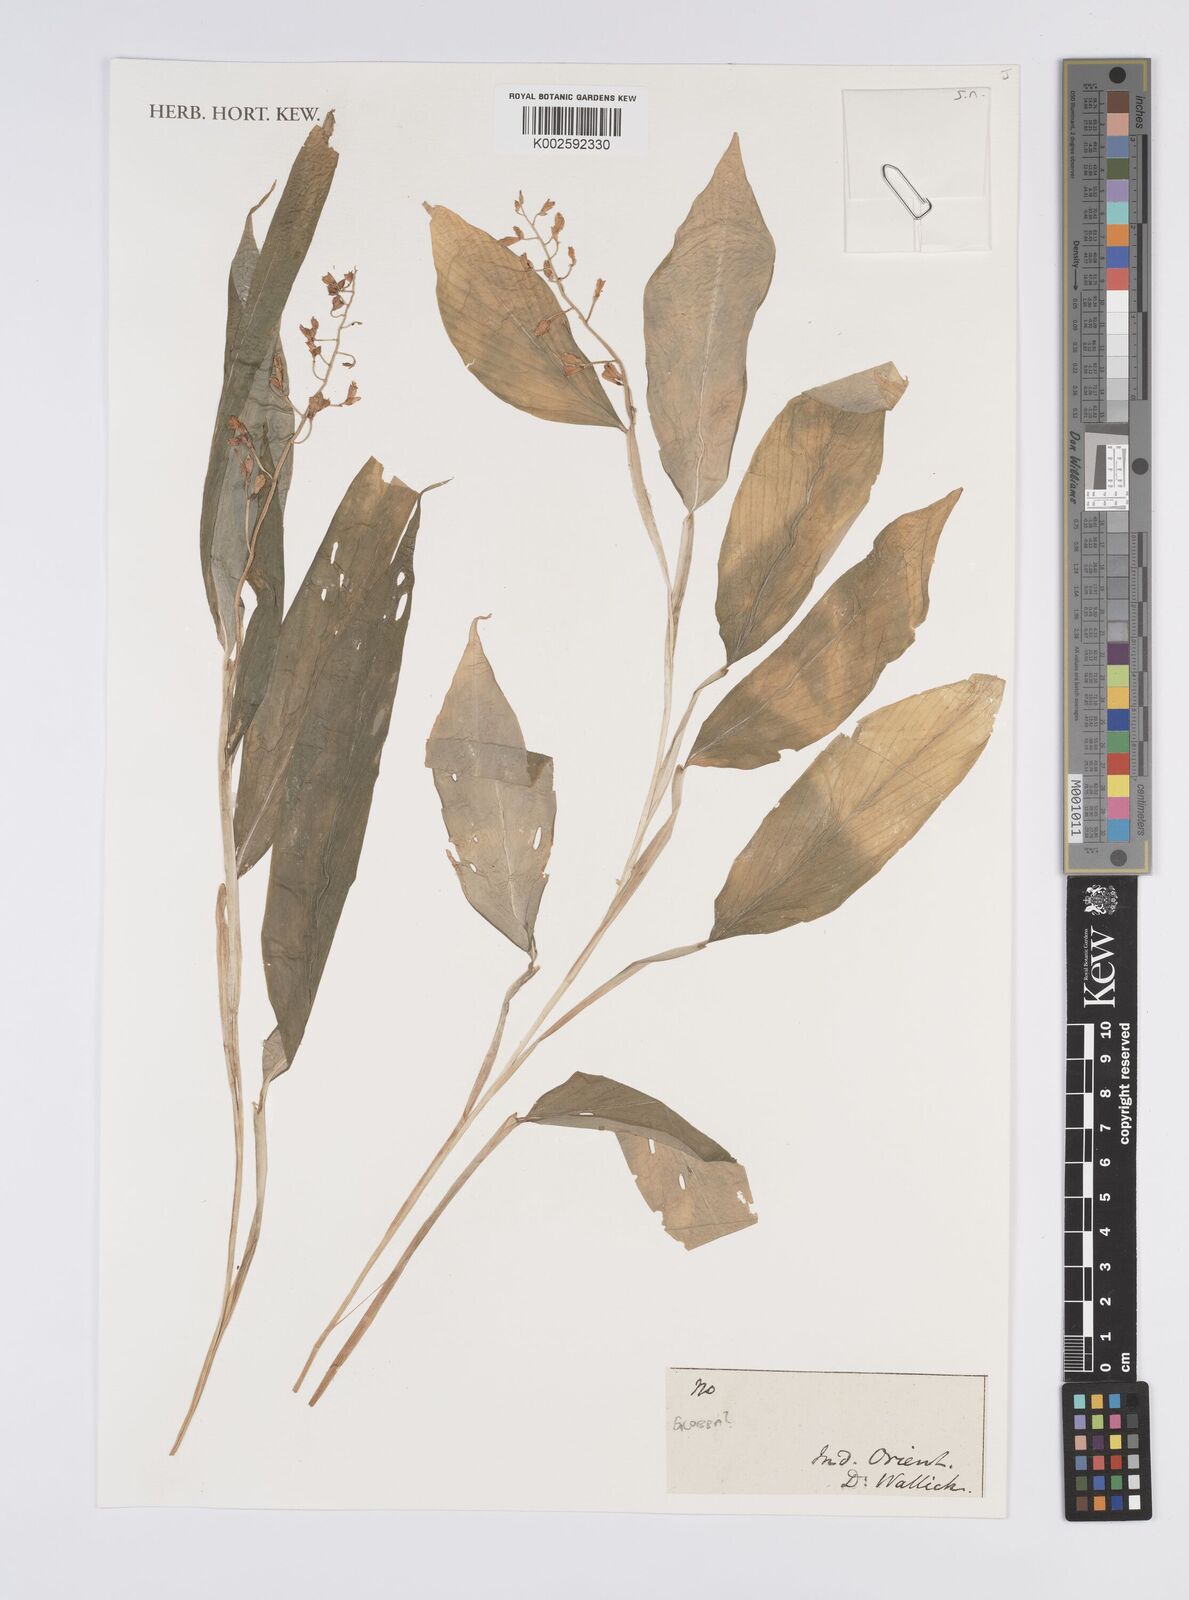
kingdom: Plantae
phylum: Tracheophyta
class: Liliopsida
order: Zingiberales
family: Zingiberaceae
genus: Globba
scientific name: Globba
